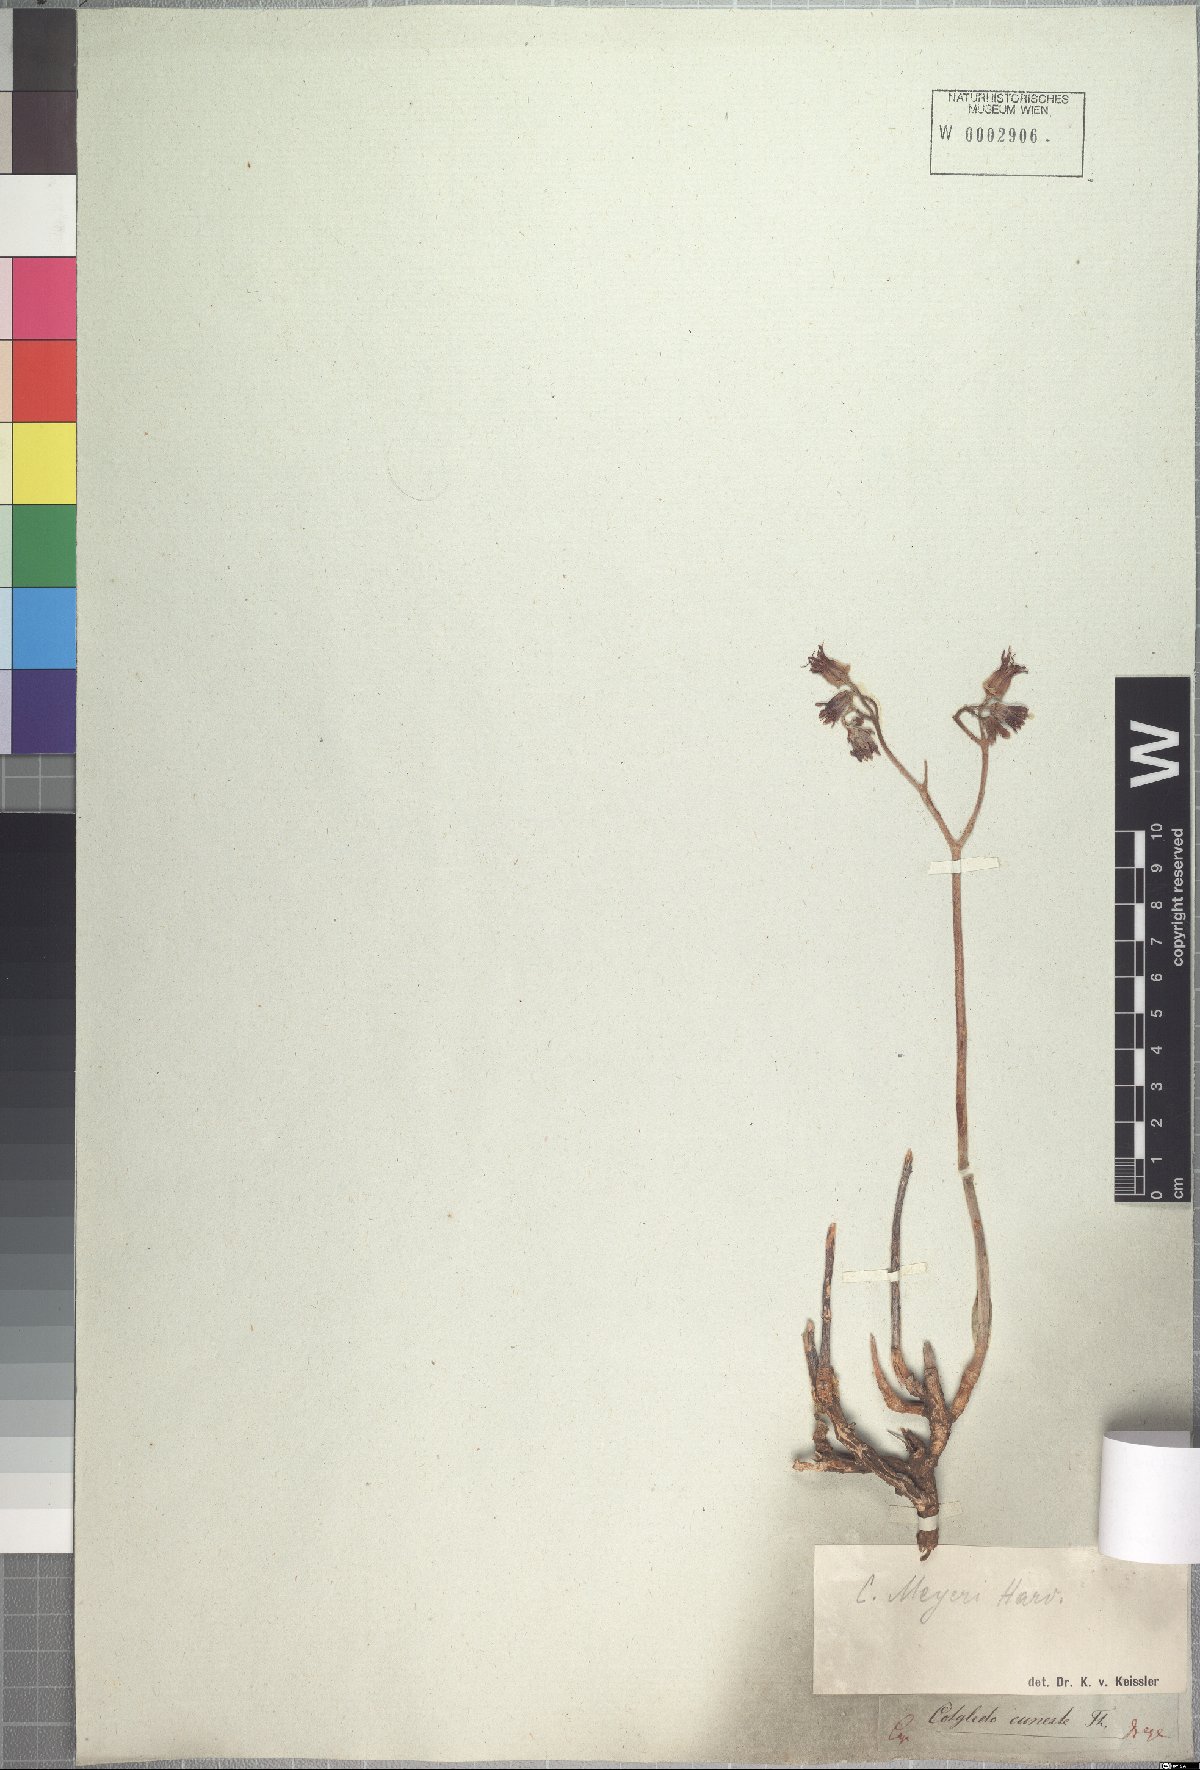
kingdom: Plantae
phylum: Tracheophyta
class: Magnoliopsida
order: Saxifragales
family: Crassulaceae
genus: Cotyledon
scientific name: Cotyledon papillaris
